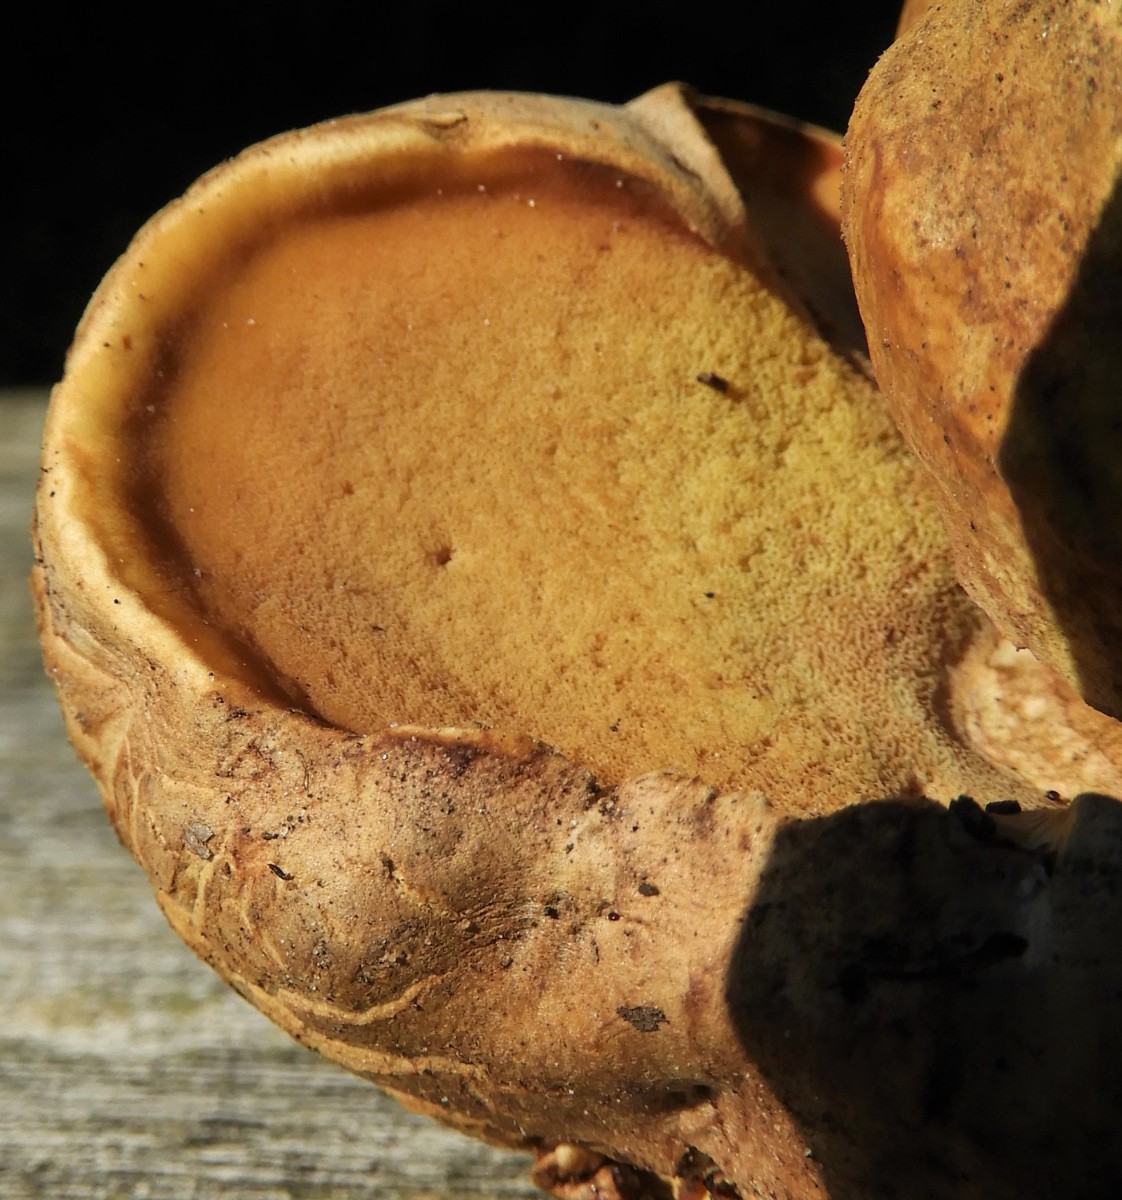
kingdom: Fungi
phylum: Basidiomycota
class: Agaricomycetes
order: Boletales
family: Boletaceae
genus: Caloboletus
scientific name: Caloboletus radicans
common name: rod-rørhat
